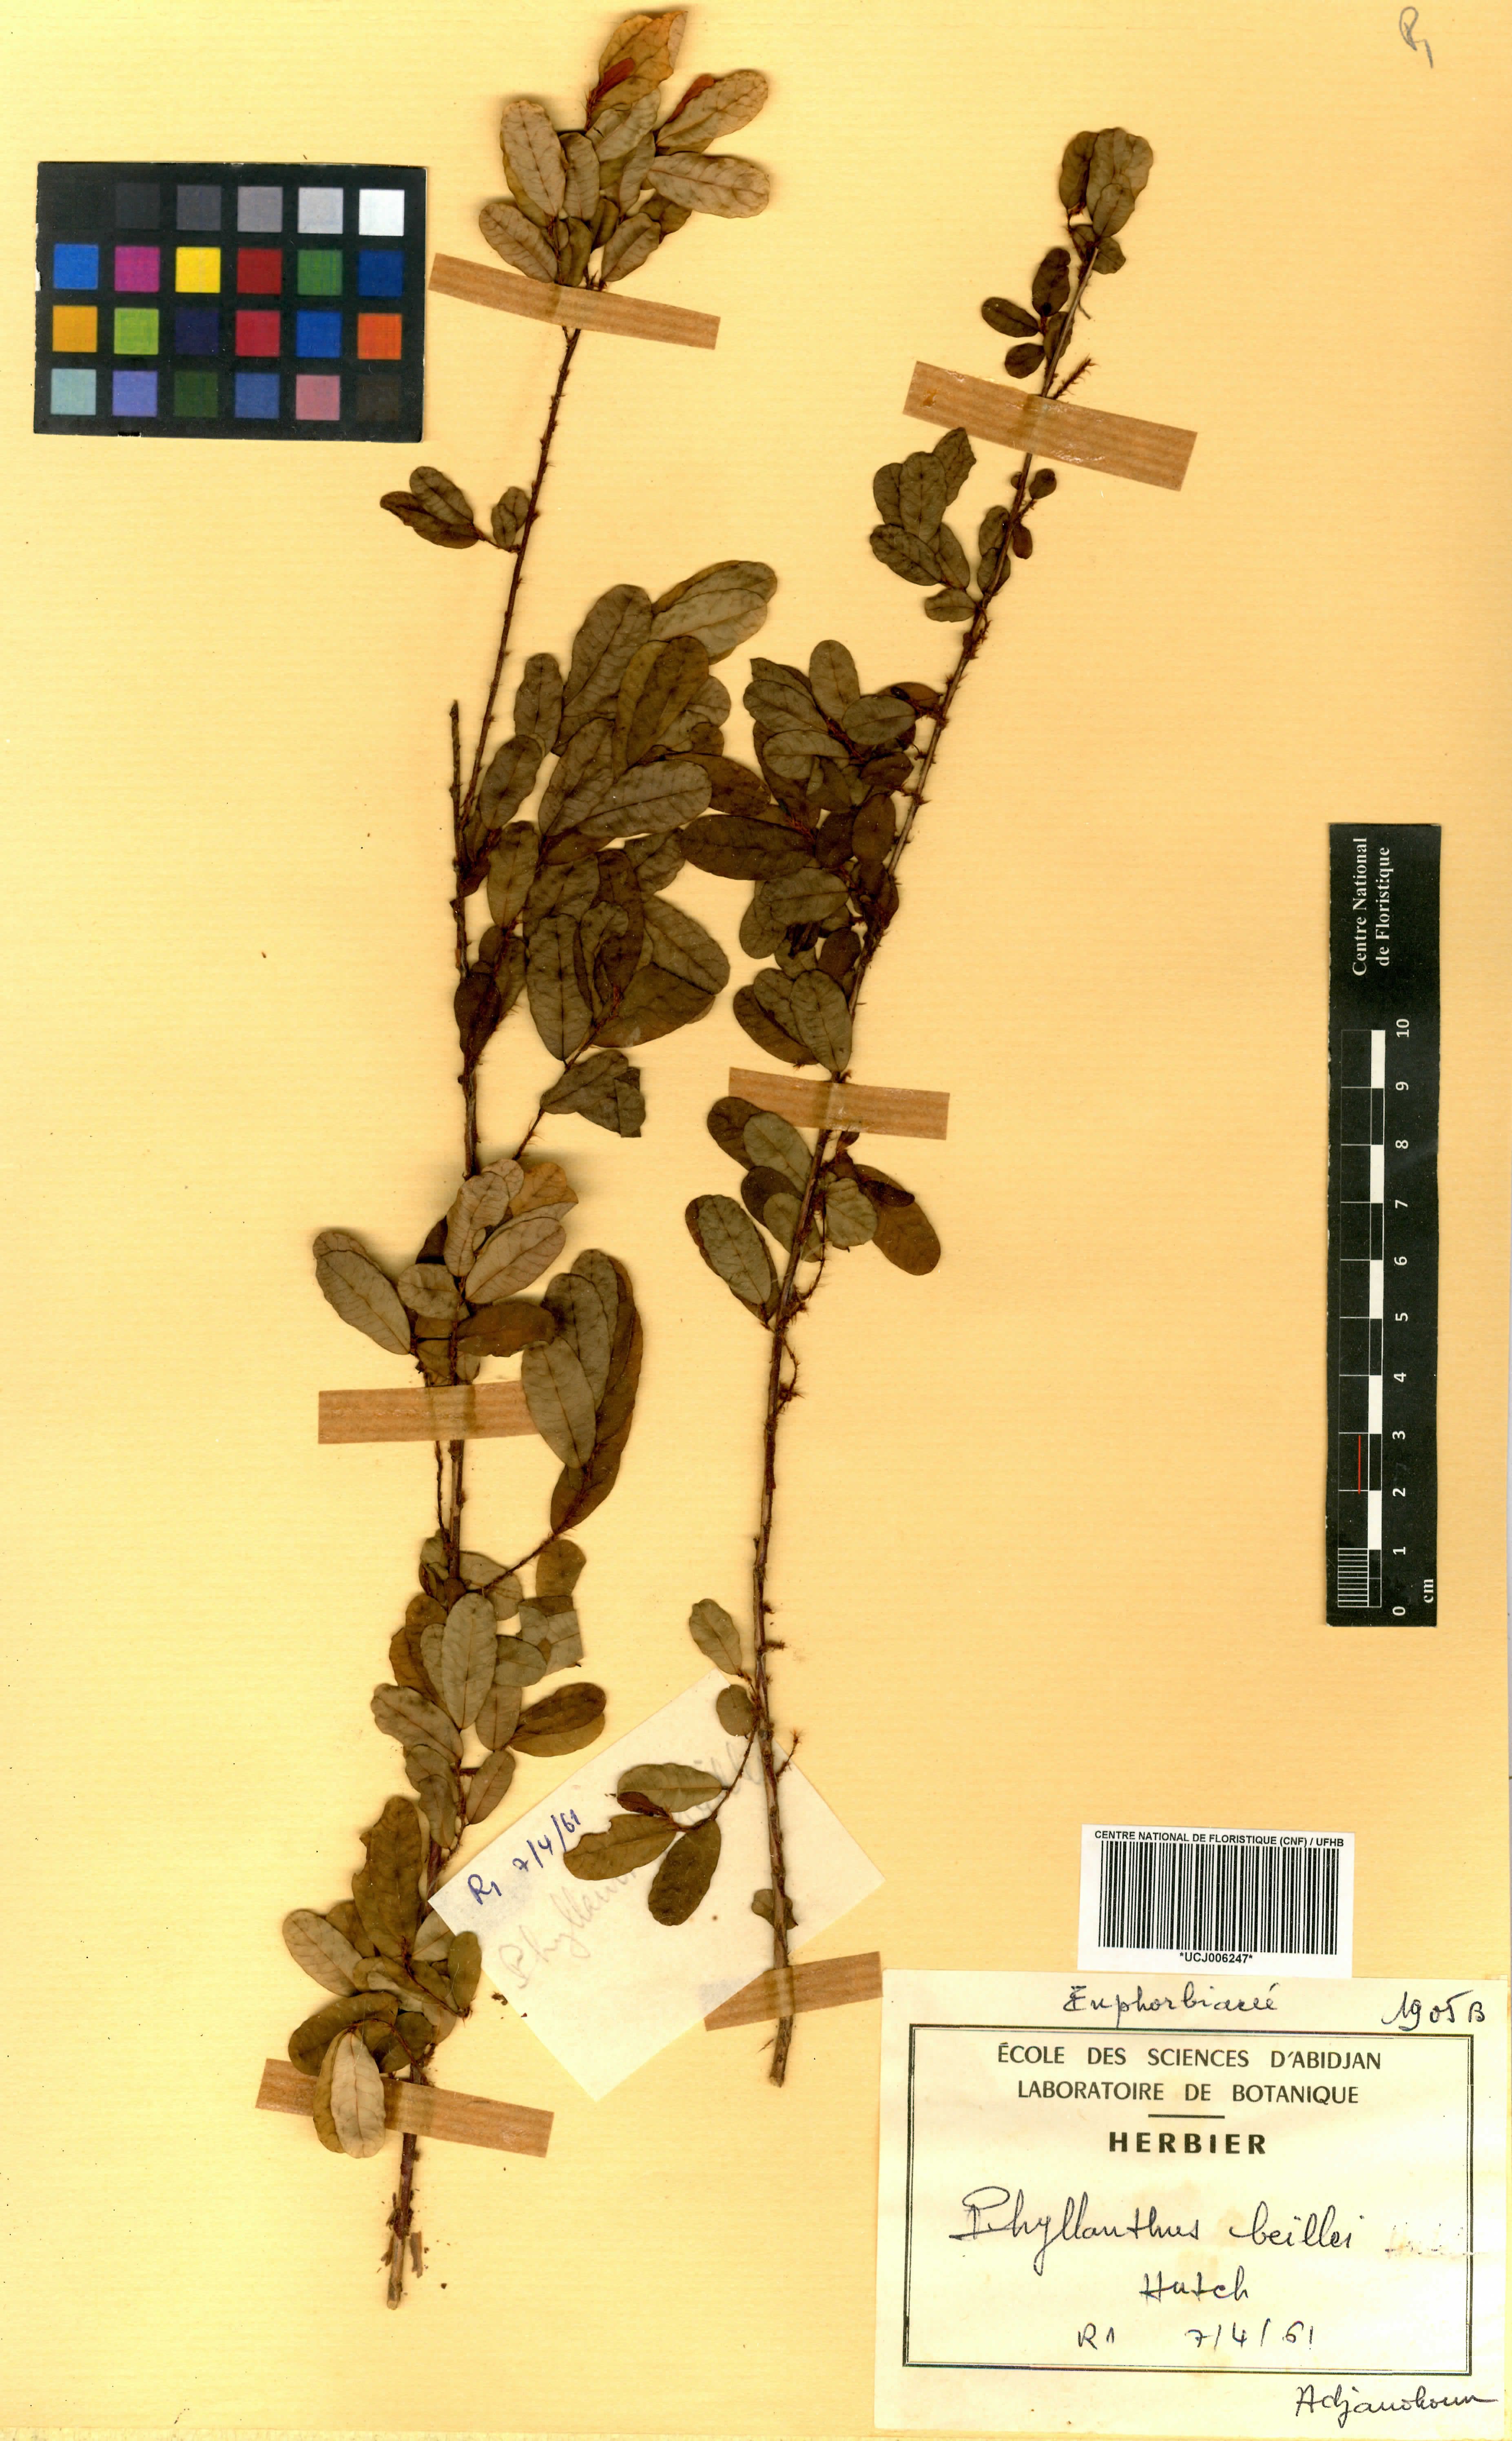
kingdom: Plantae
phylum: Tracheophyta
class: Magnoliopsida
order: Malpighiales
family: Phyllanthaceae
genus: Phyllanthus
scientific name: Phyllanthus welwitschianus
